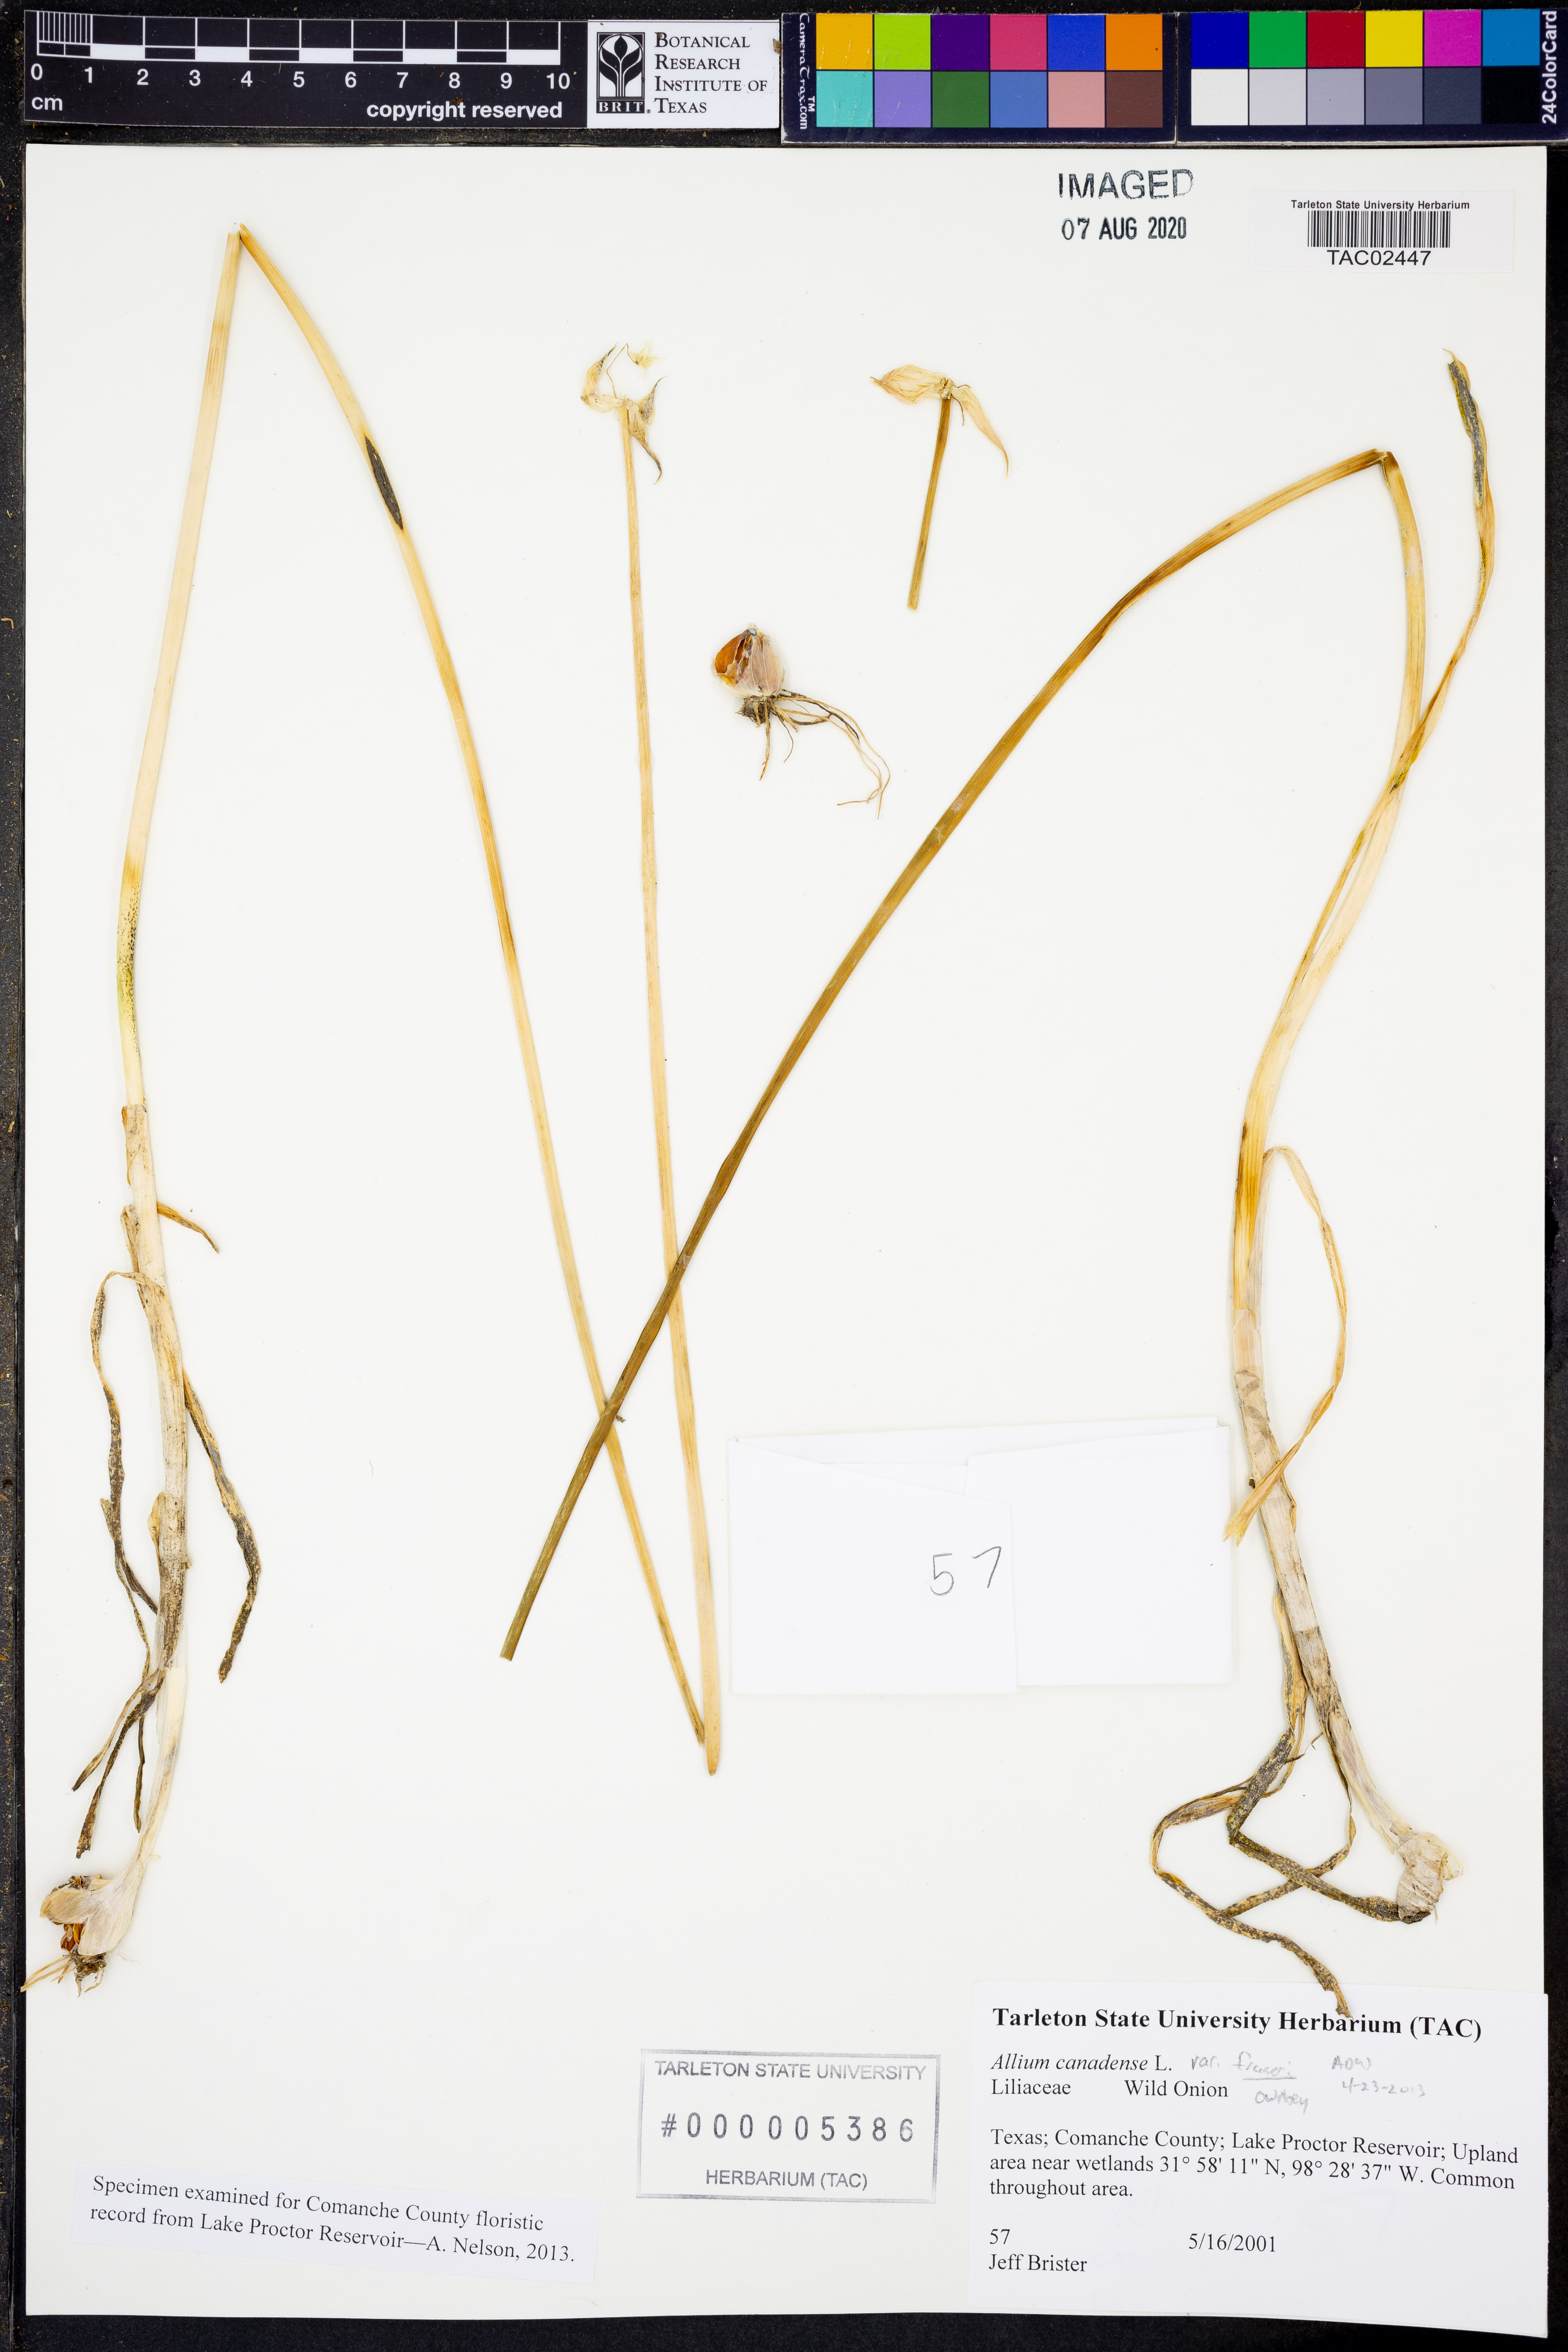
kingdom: Plantae
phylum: Tracheophyta
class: Liliopsida
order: Asparagales
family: Amaryllidaceae
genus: Allium
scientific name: Allium fraseri
